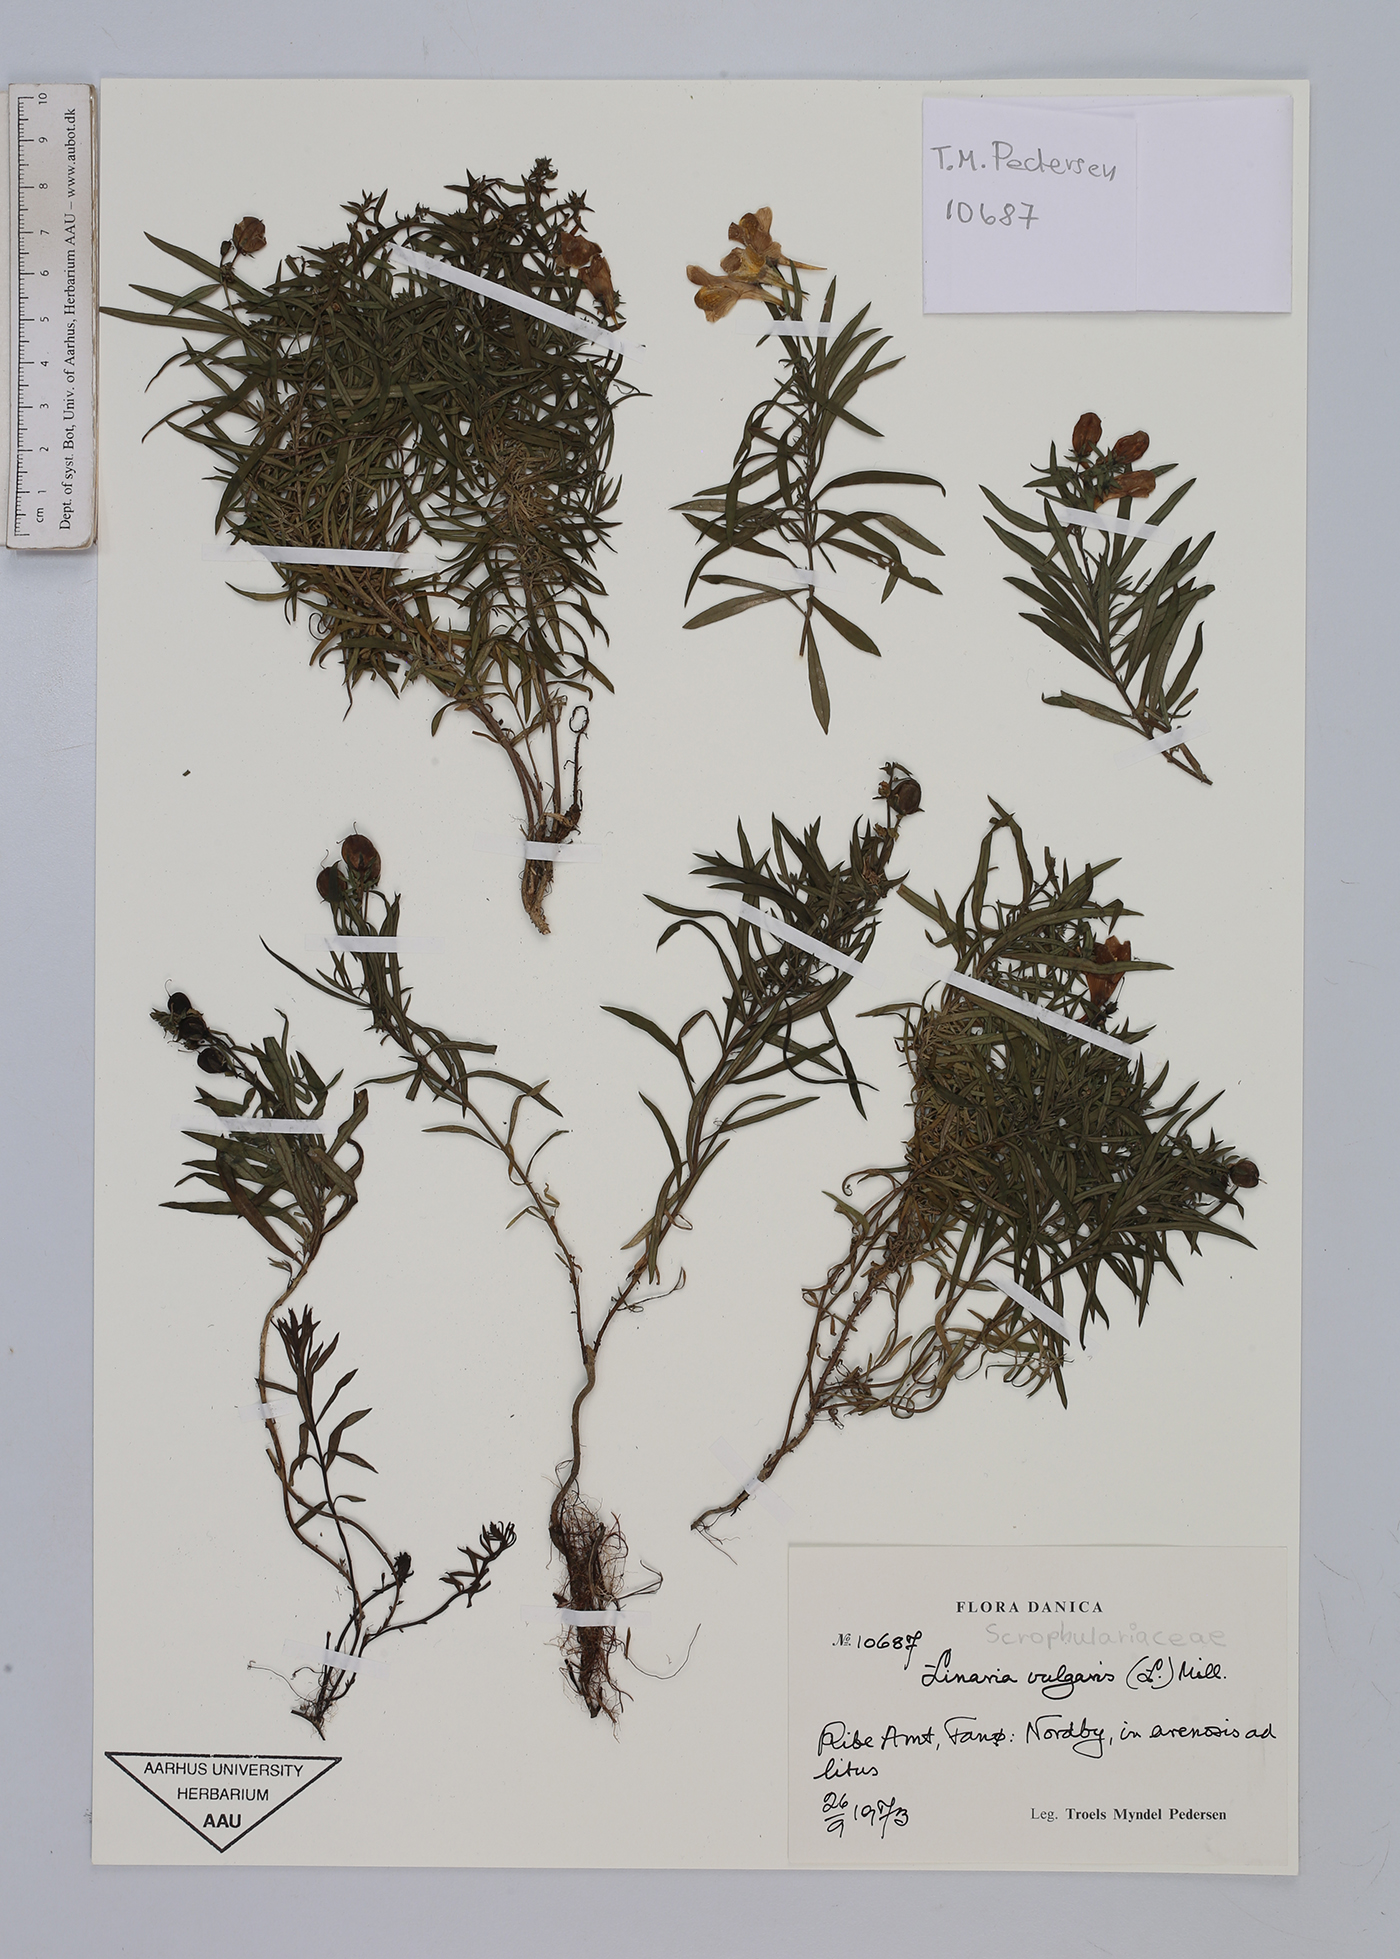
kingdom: Plantae
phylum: Tracheophyta
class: Magnoliopsida
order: Lamiales
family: Plantaginaceae
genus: Linaria
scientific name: Linaria vulgaris
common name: Butter and eggs
